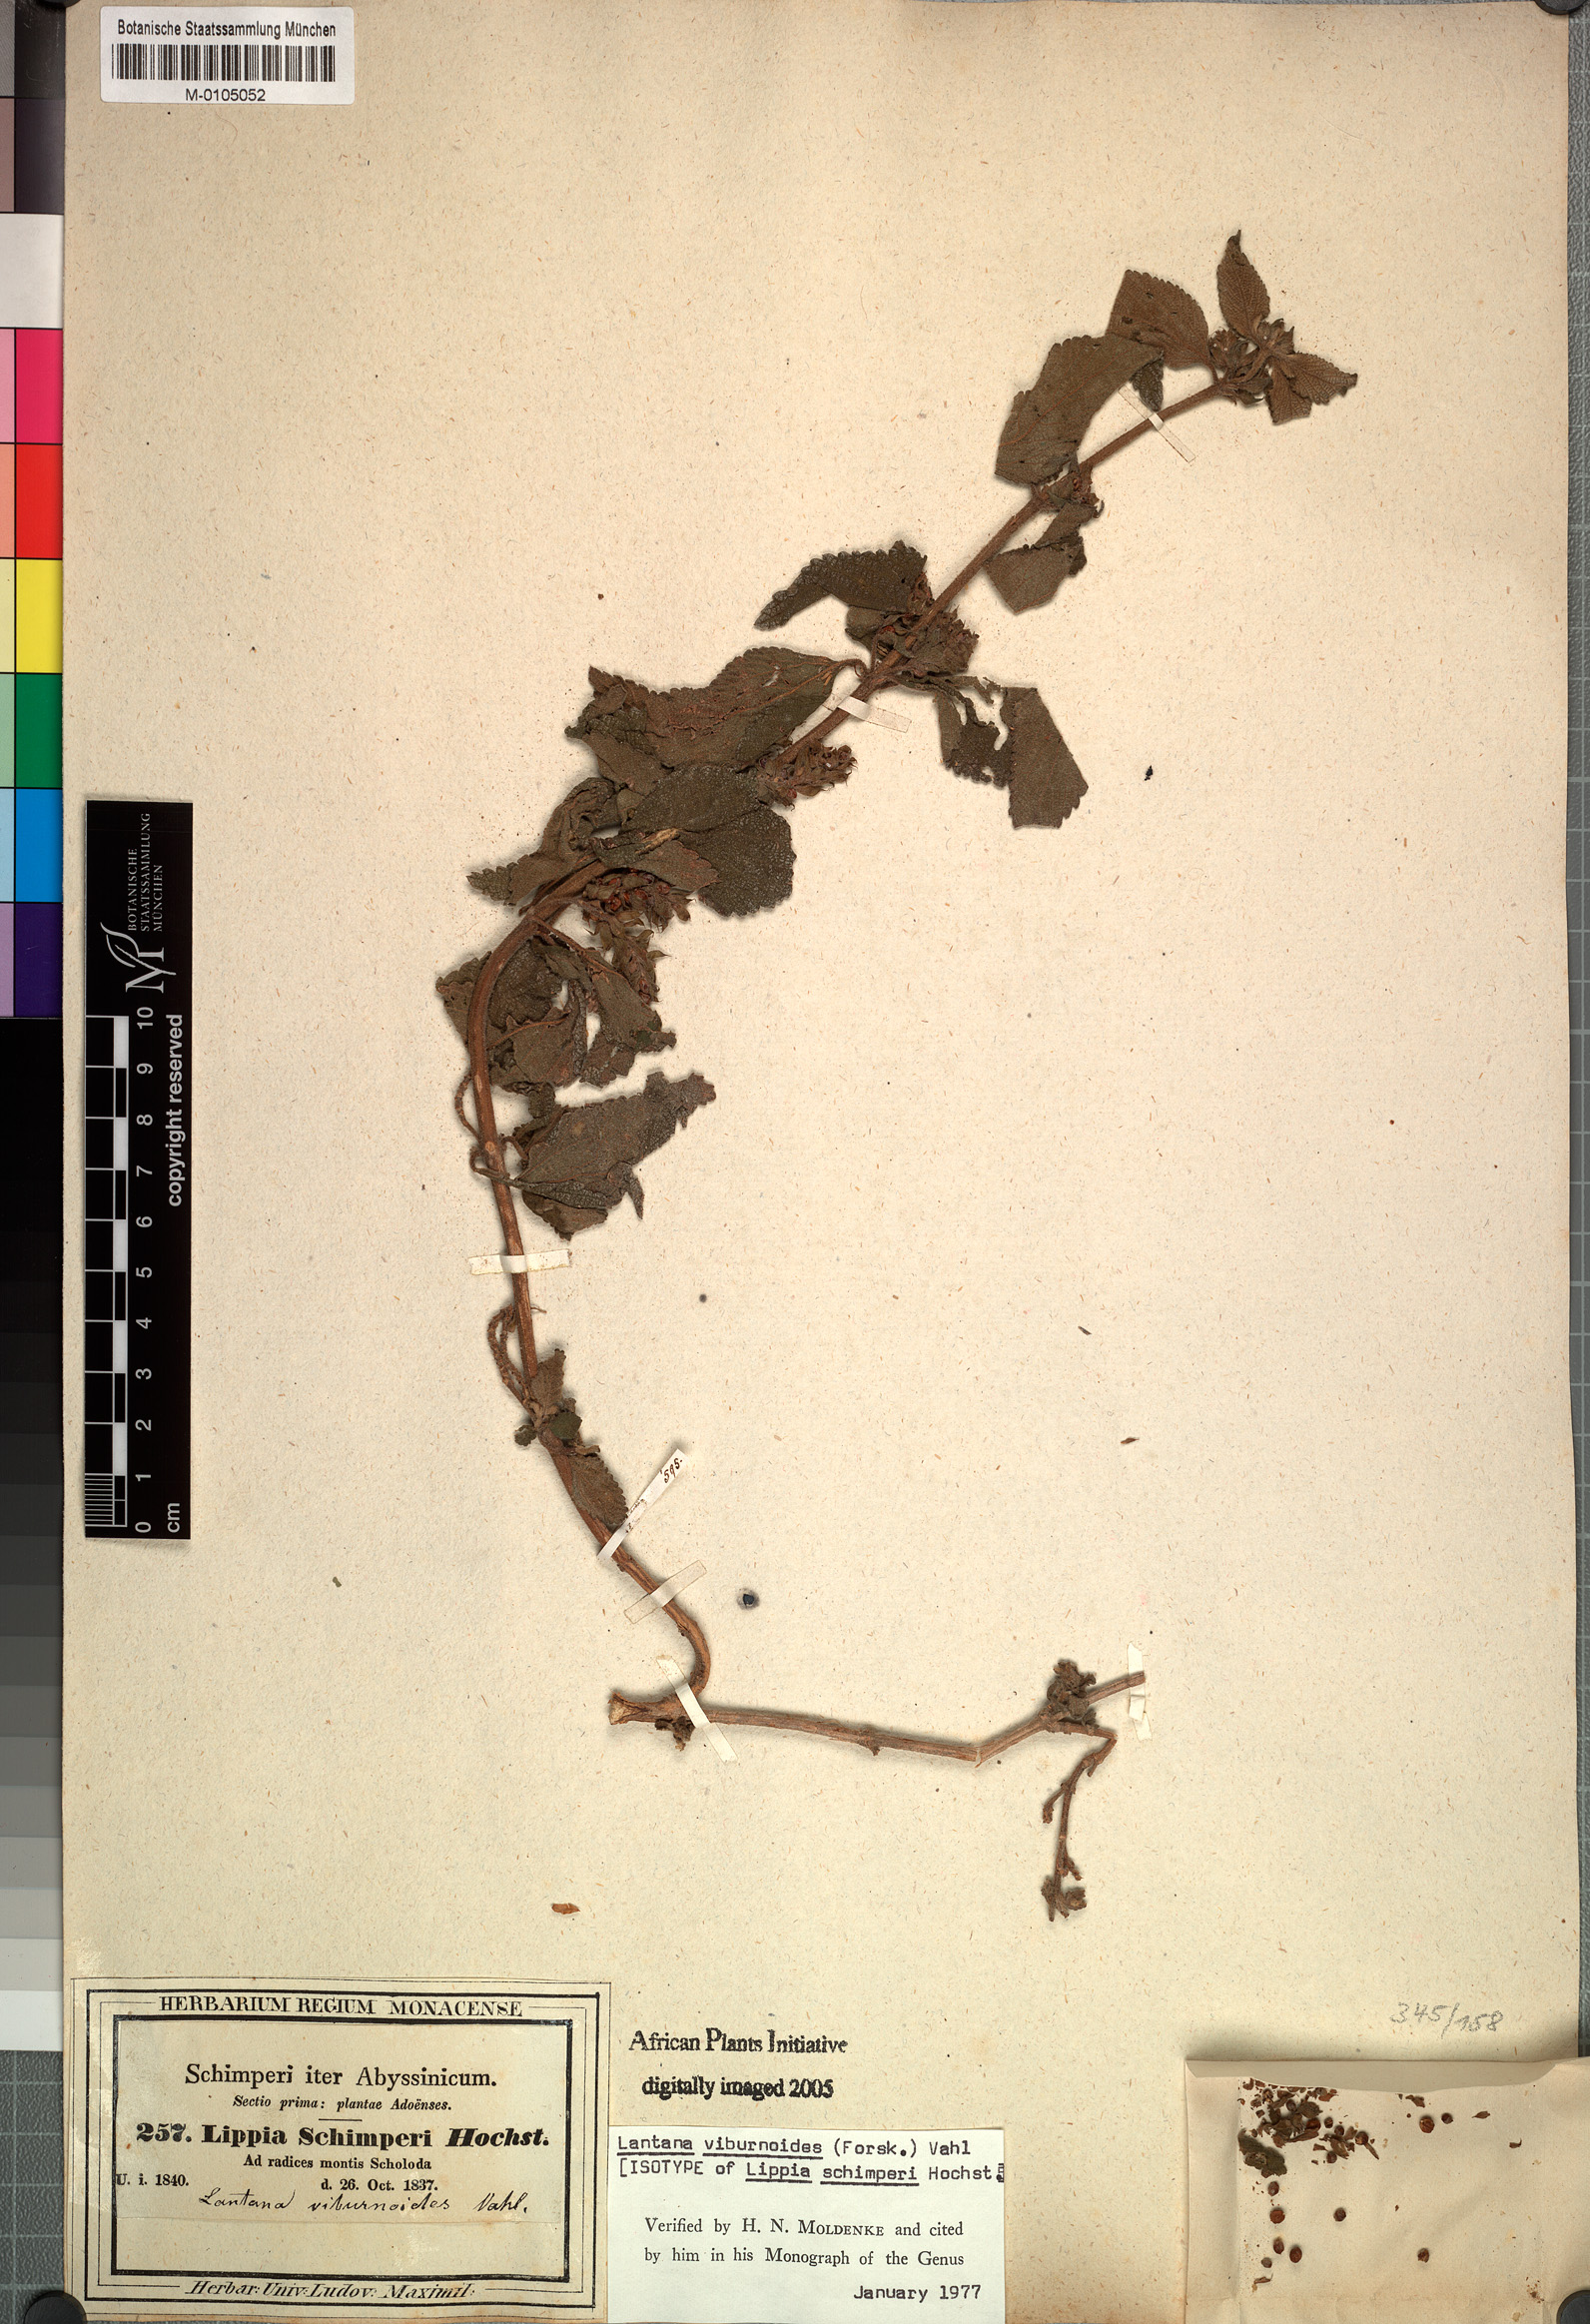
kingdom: Plantae
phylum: Tracheophyta
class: Magnoliopsida
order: Lamiales
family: Verbenaceae
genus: Lantana
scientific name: Lantana viburnoides
